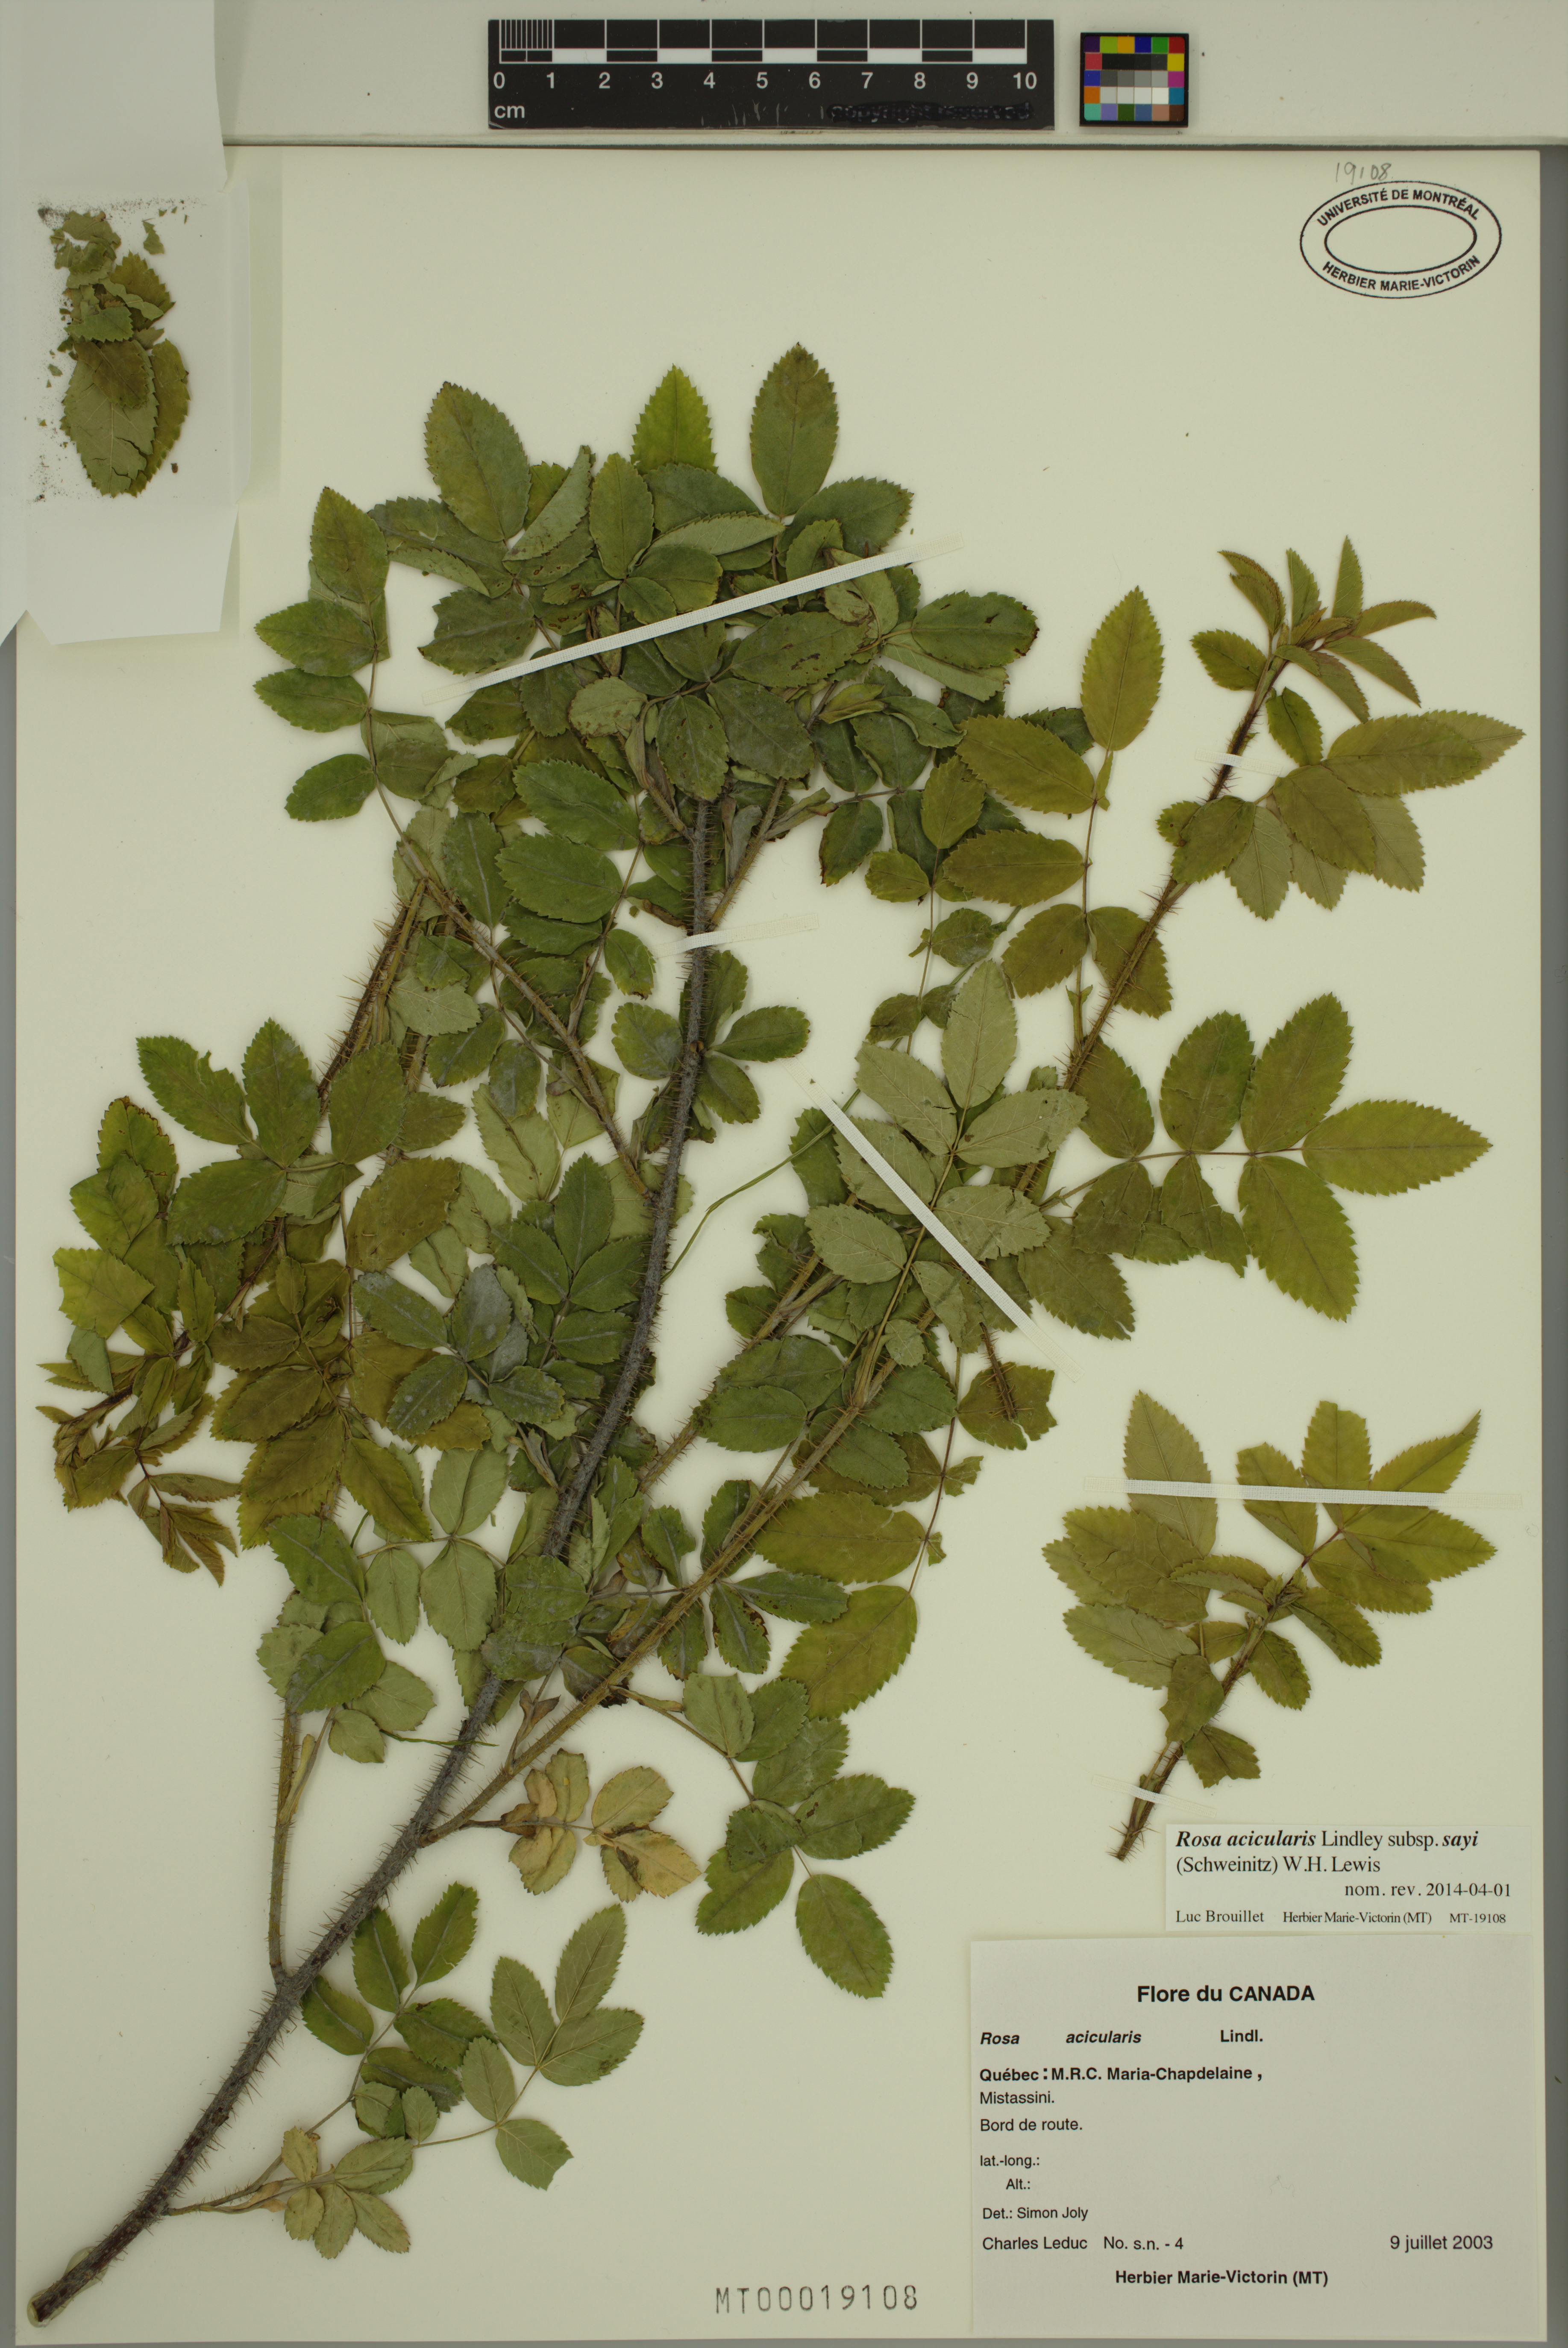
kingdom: Plantae
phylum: Tracheophyta
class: Magnoliopsida
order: Rosales
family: Rosaceae
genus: Rosa
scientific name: Rosa acicularis
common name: Prickly rose
